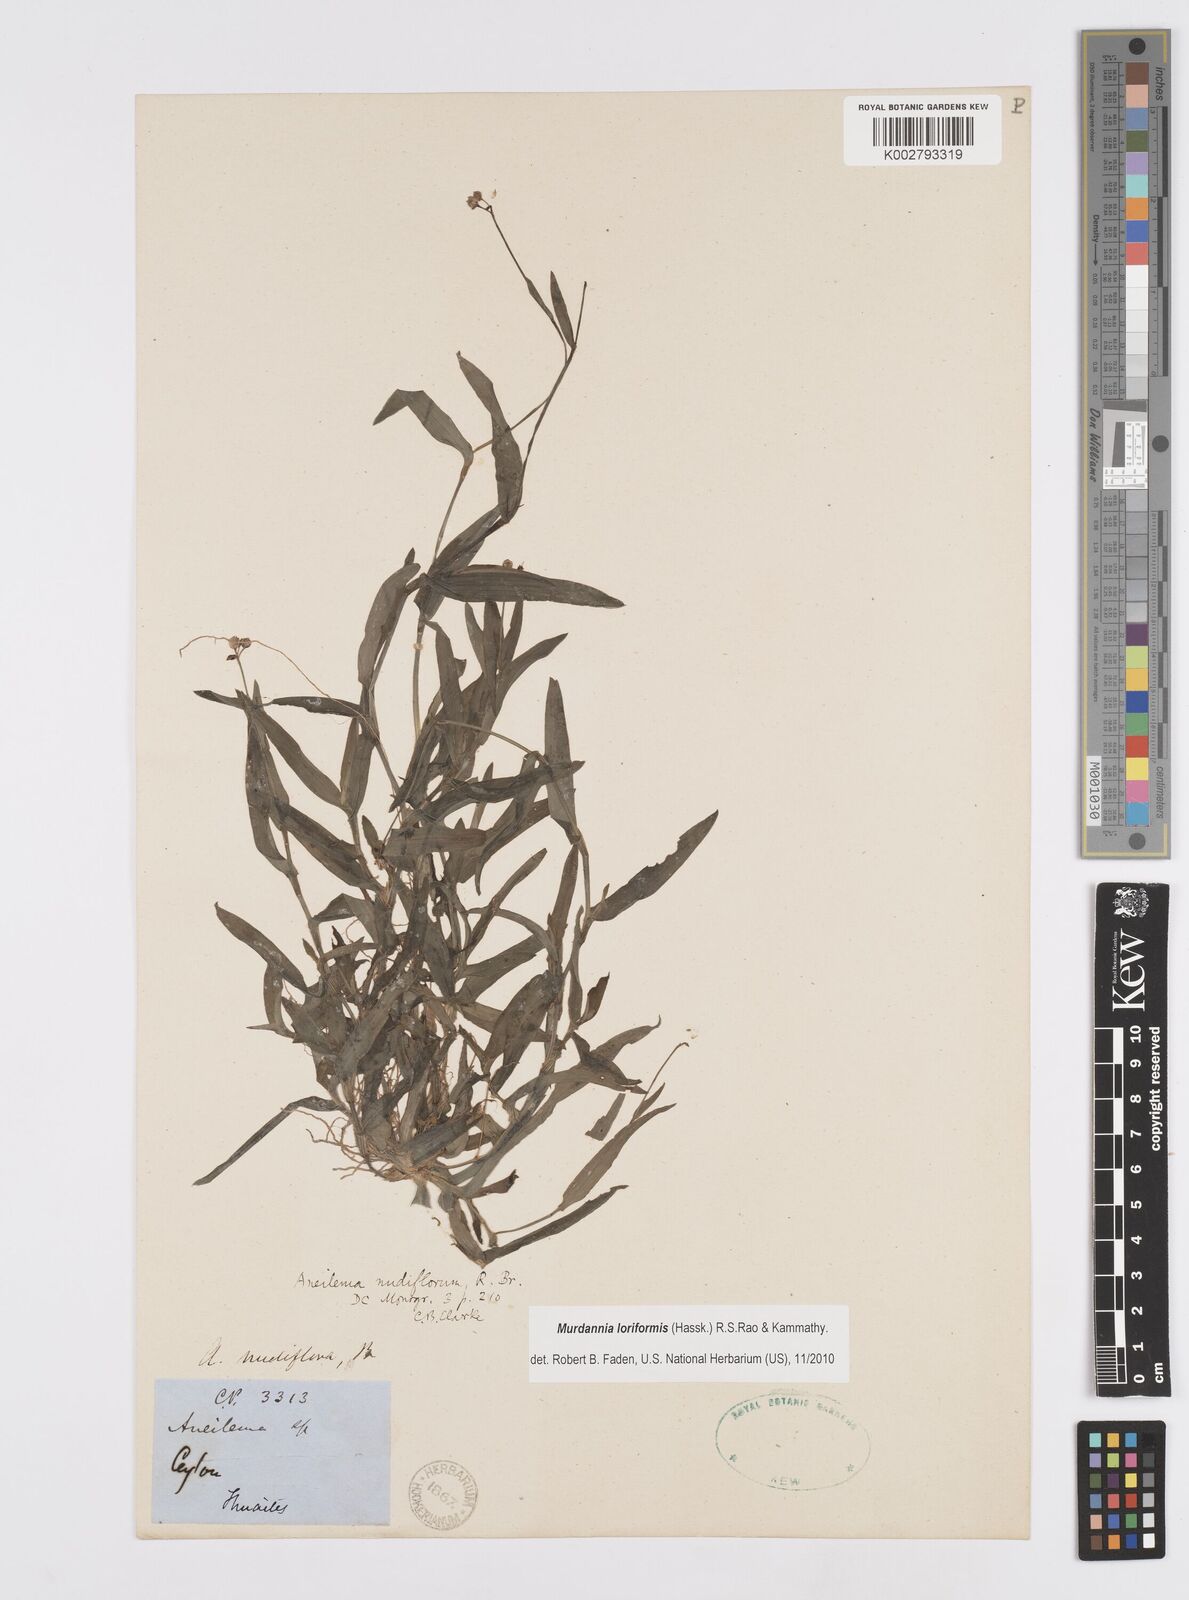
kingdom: Plantae
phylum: Tracheophyta
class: Liliopsida
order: Commelinales
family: Commelinaceae
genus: Murdannia
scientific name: Murdannia loriformis
